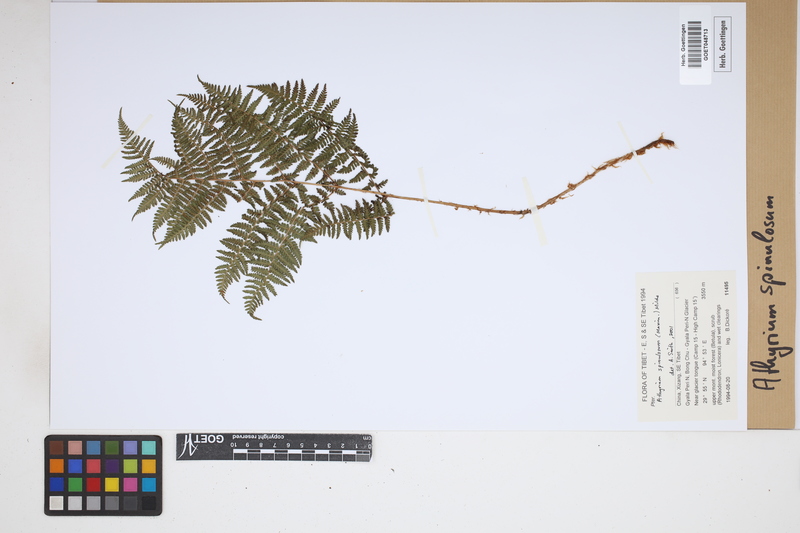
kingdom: Plantae
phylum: Tracheophyta
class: Polypodiopsida
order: Polypodiales
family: Athyriaceae
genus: Athyrium
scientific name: Athyrium spinulosum
